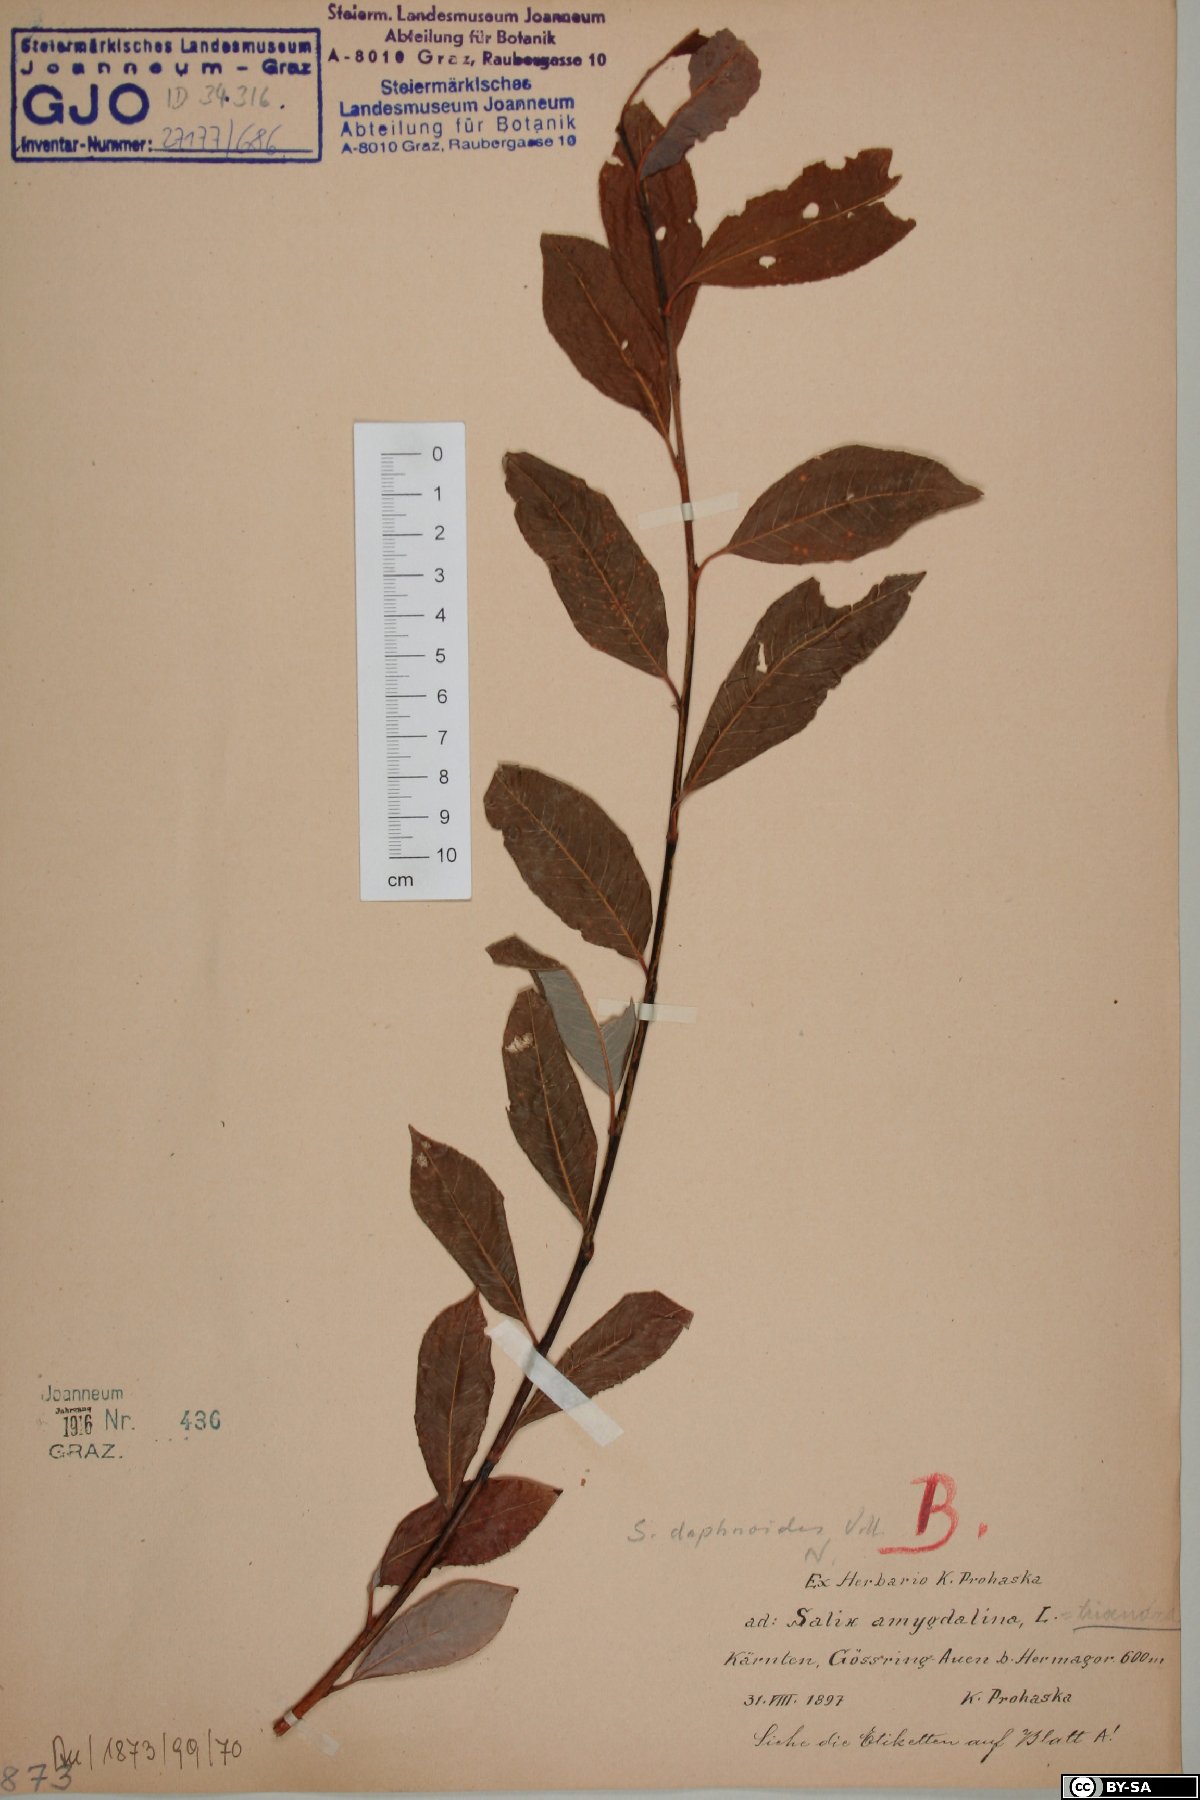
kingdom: Plantae
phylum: Tracheophyta
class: Magnoliopsida
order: Malpighiales
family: Salicaceae
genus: Salix
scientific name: Salix daphnoides
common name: European violet-willow
